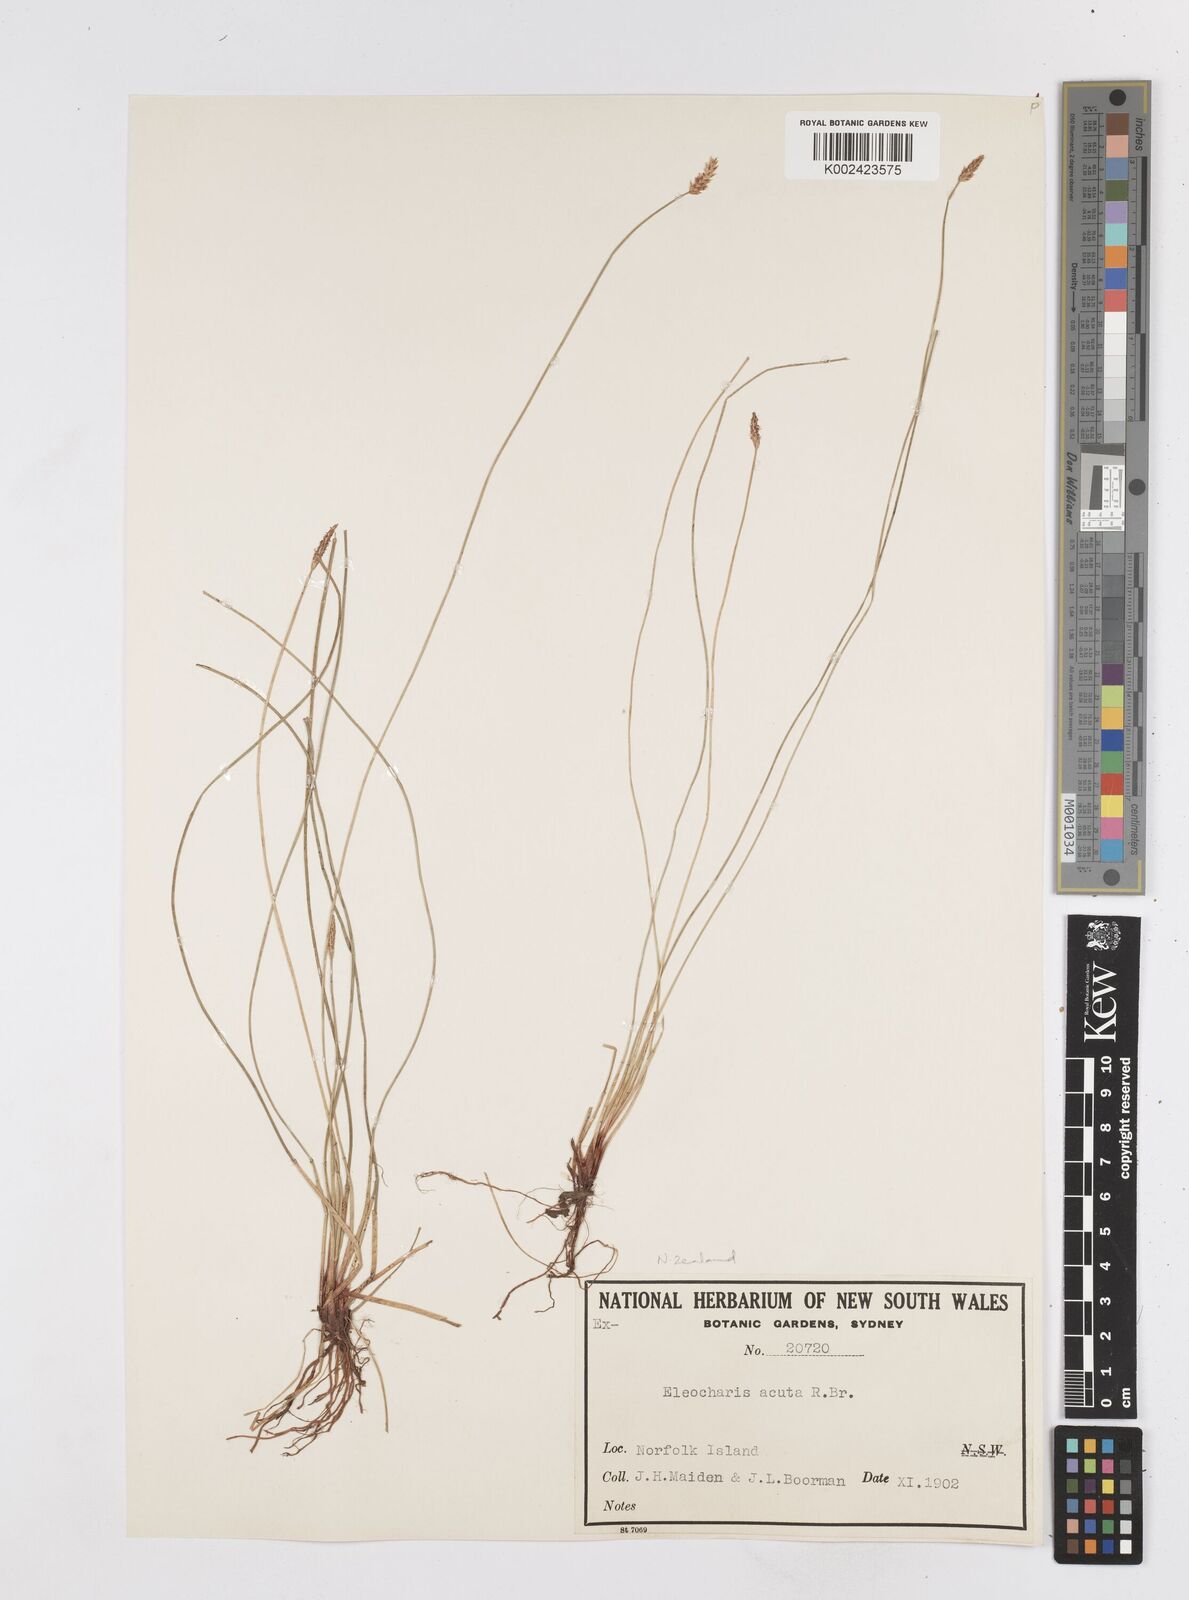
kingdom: Plantae
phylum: Tracheophyta
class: Liliopsida
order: Poales
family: Cyperaceae
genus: Eleocharis
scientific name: Eleocharis acuta
